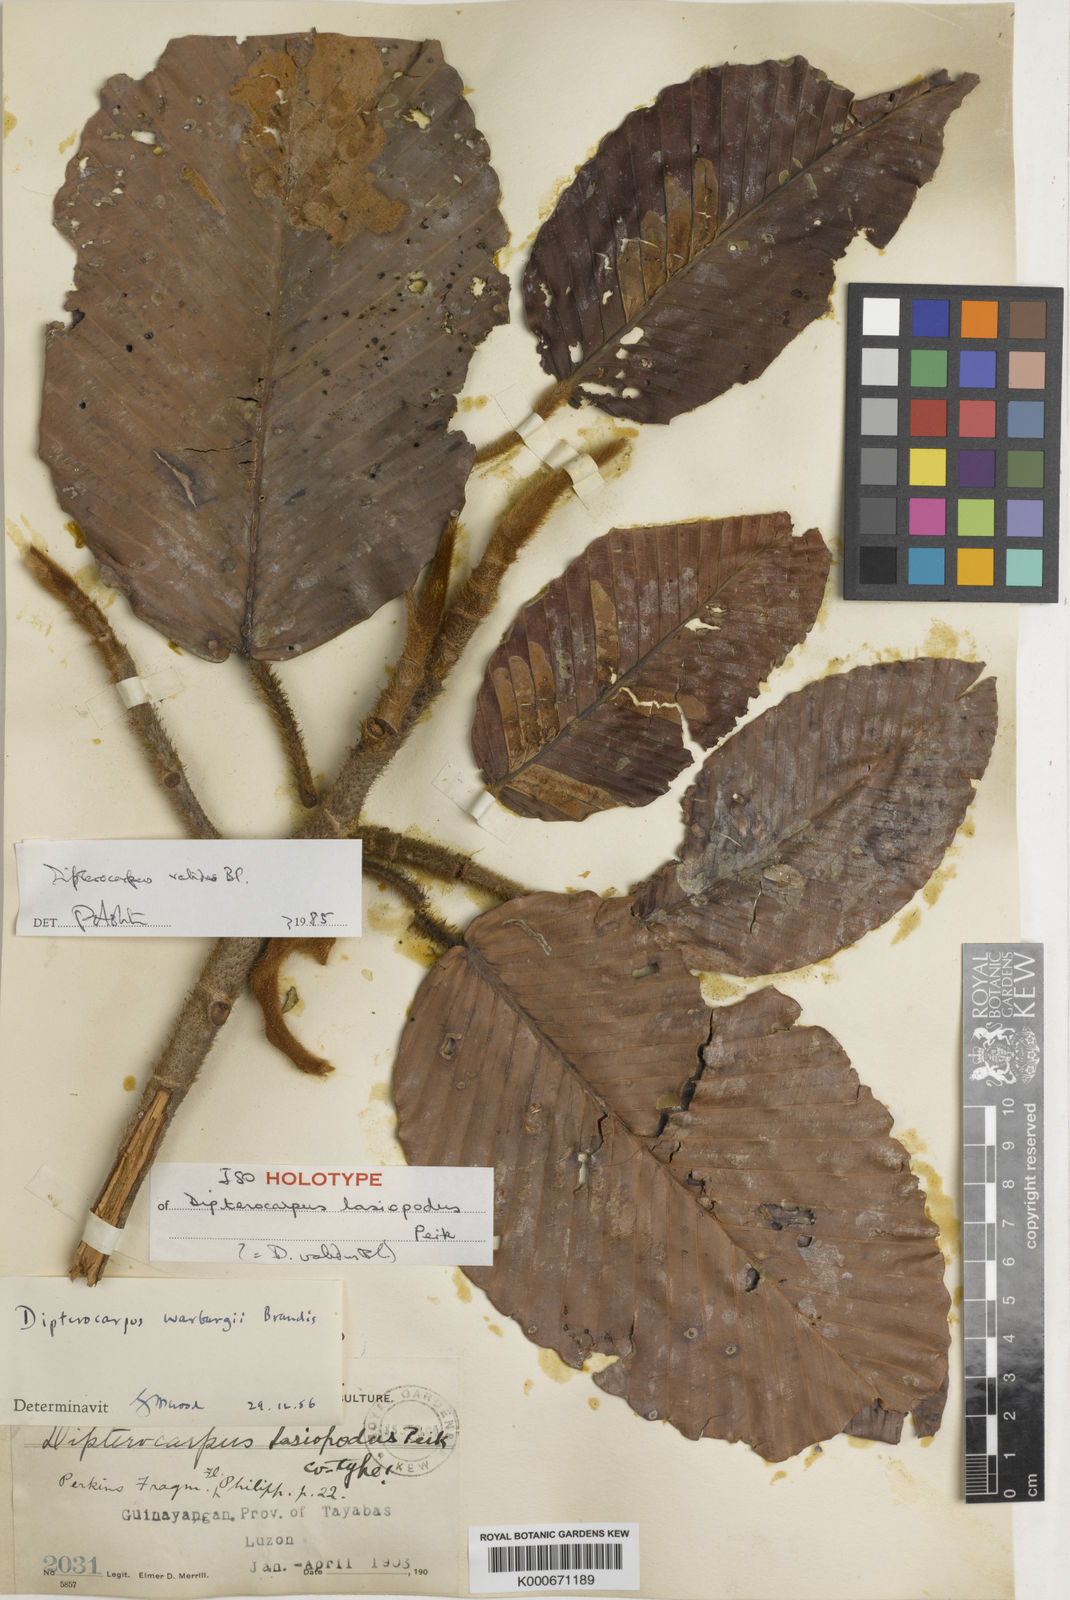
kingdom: Plantae
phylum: Tracheophyta
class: Magnoliopsida
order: Malvales
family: Dipterocarpaceae
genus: Dipterocarpus
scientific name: Dipterocarpus validus
